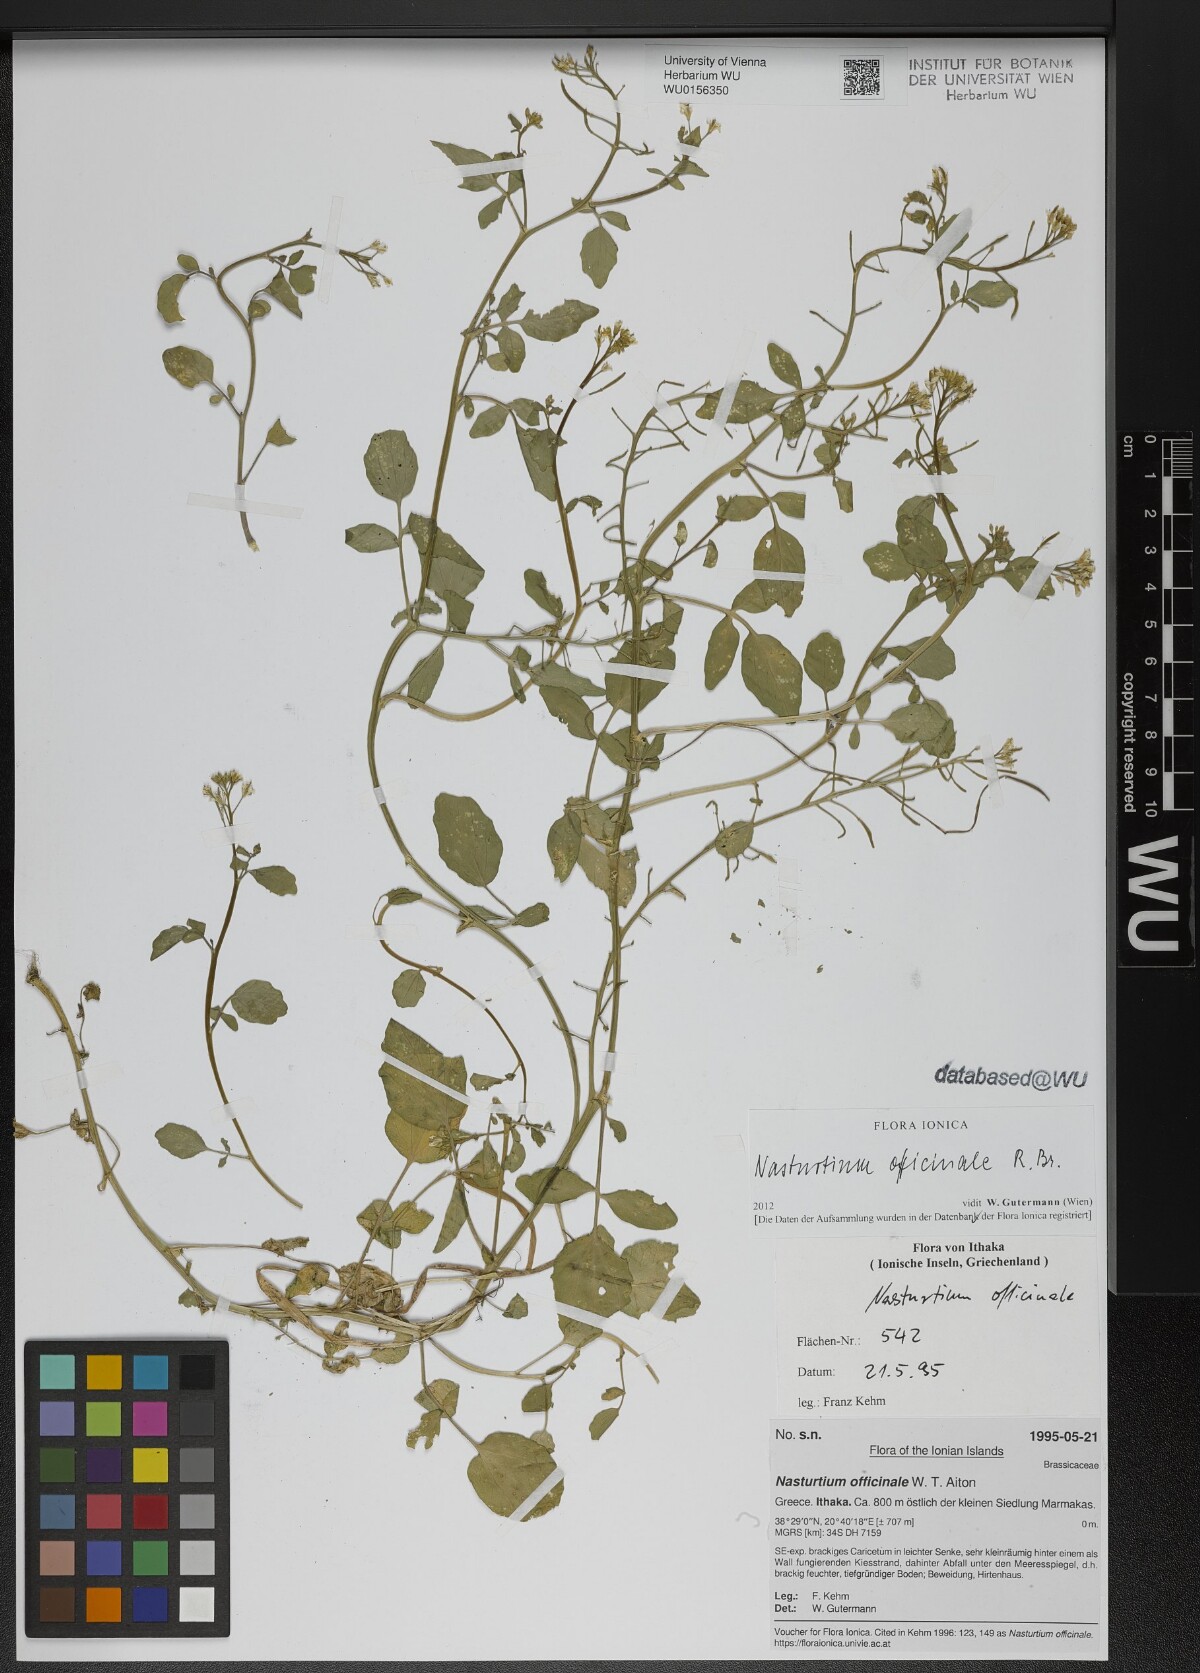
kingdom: Plantae
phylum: Tracheophyta
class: Magnoliopsida
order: Brassicales
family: Brassicaceae
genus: Nasturtium
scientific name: Nasturtium officinale
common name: Watercress
